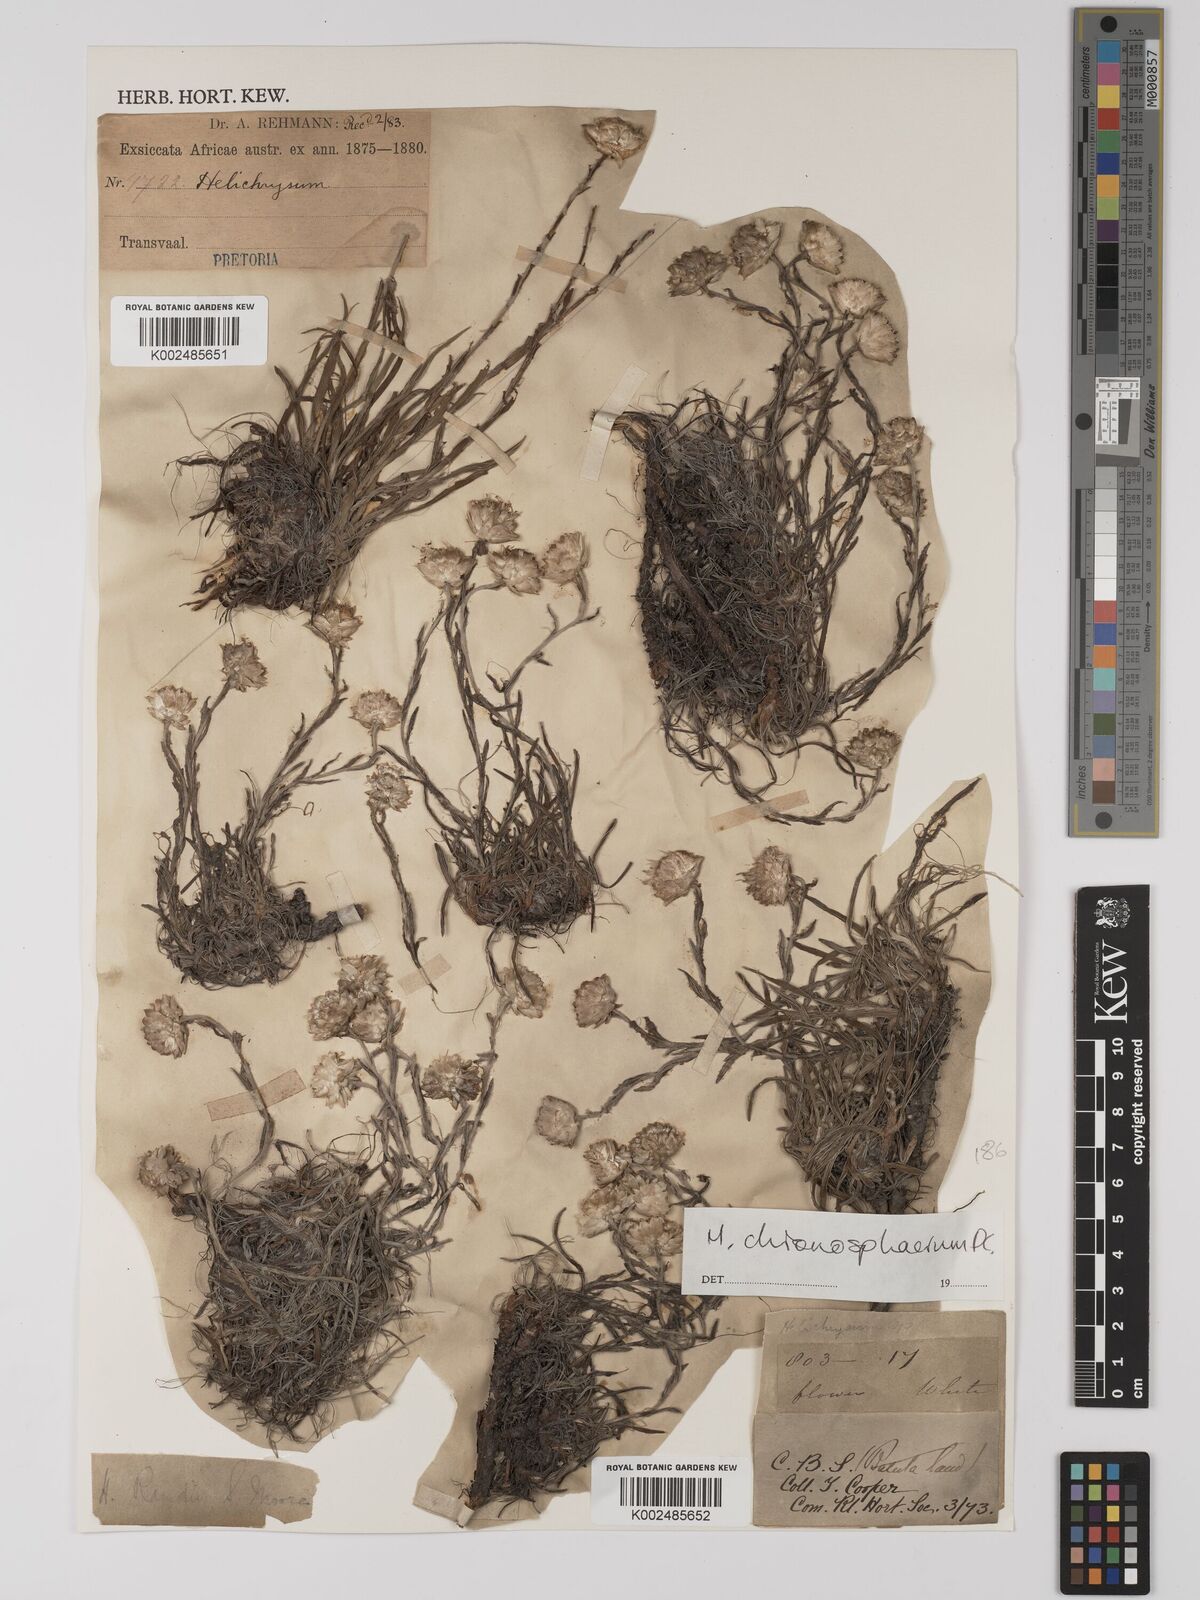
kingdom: Plantae
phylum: Tracheophyta
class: Magnoliopsida
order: Asterales
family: Asteraceae
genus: Helichrysum
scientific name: Helichrysum chionosphaerum
